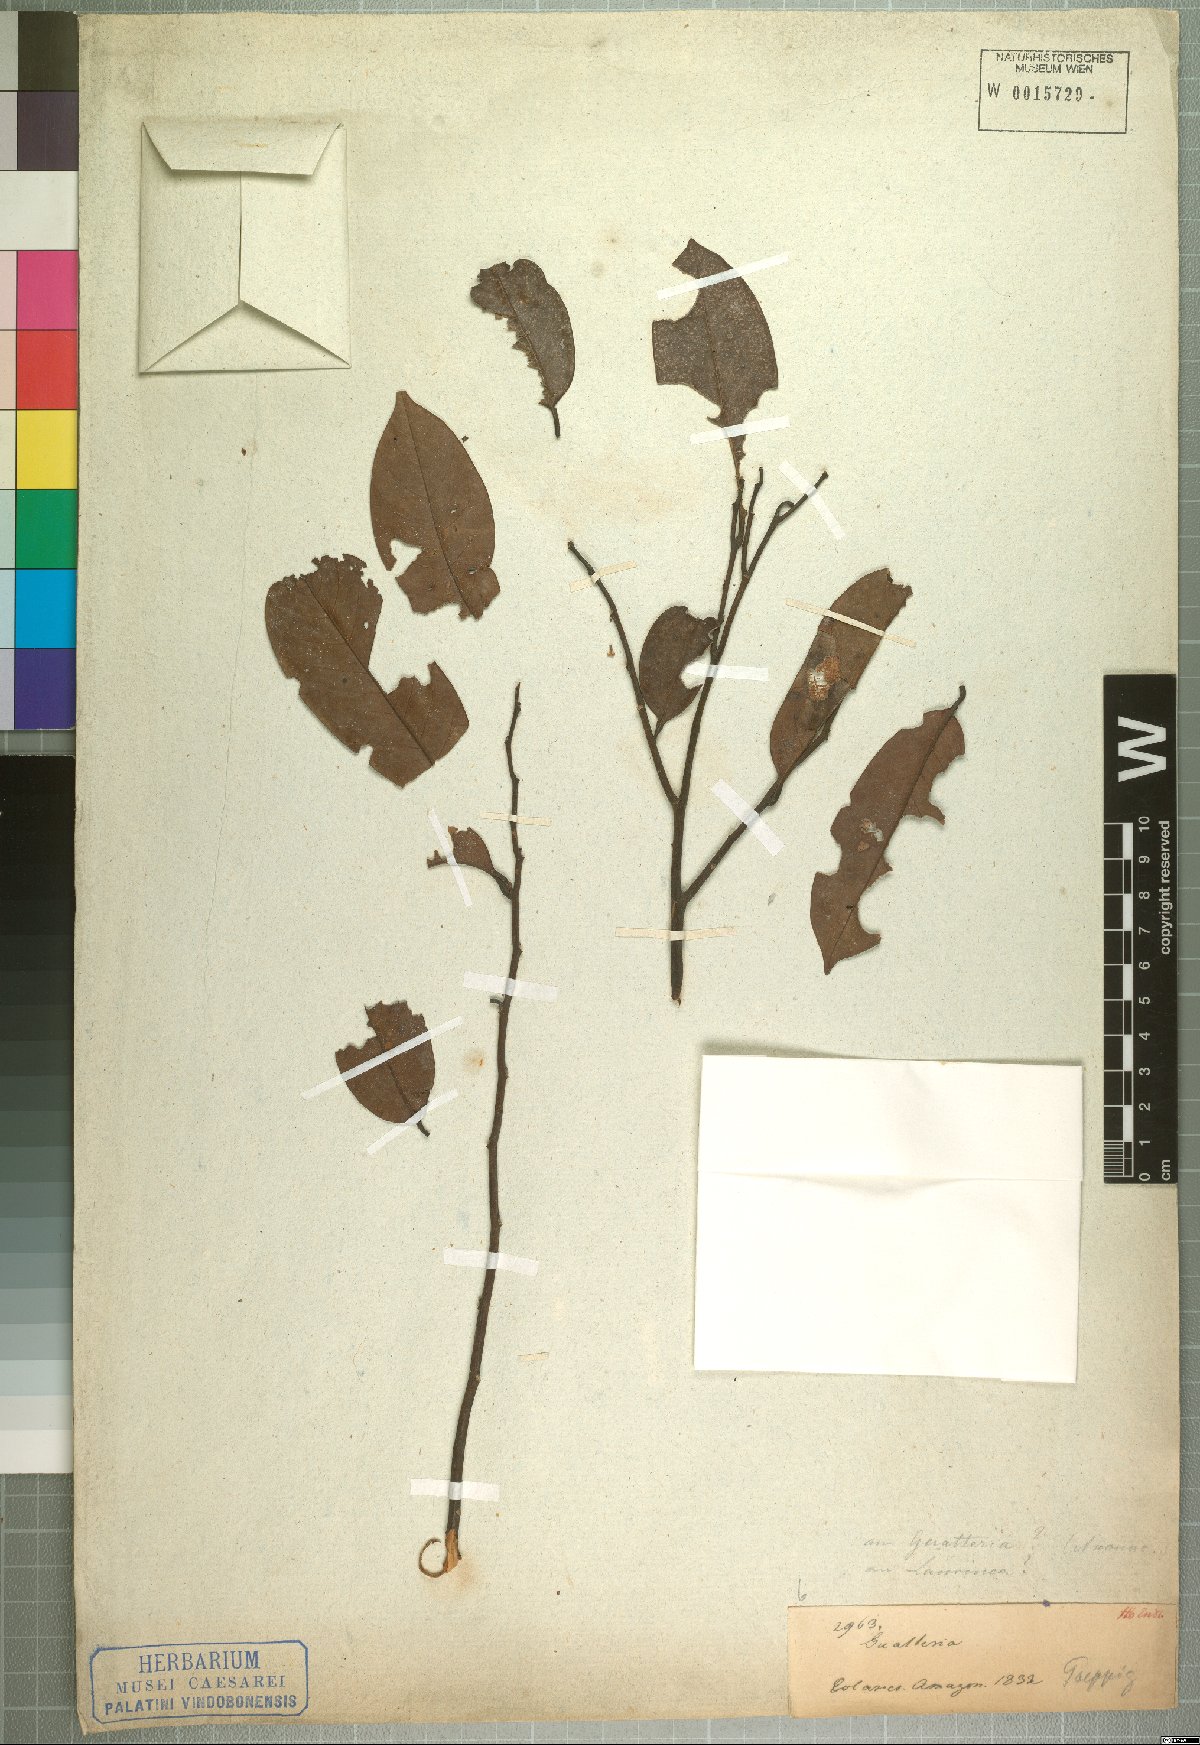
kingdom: Plantae
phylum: Tracheophyta
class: Magnoliopsida
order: Magnoliales
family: Annonaceae
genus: Guatteria
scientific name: Guatteria poeppigiana
